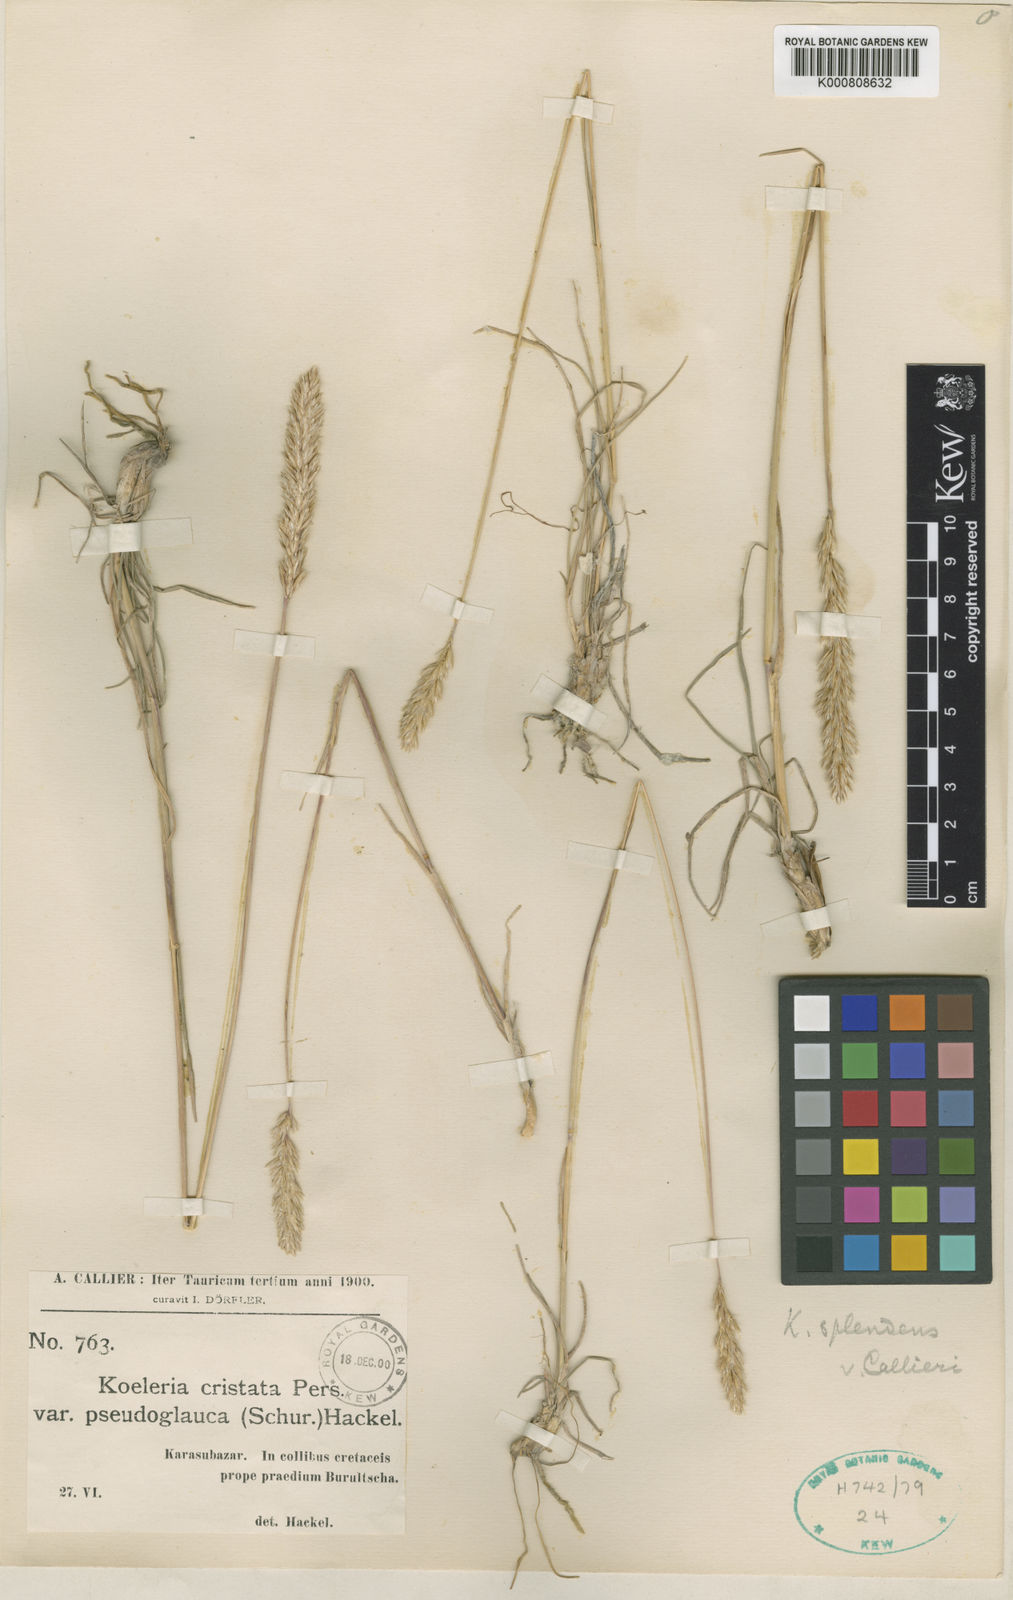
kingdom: Plantae
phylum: Tracheophyta
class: Liliopsida
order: Poales
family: Poaceae
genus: Koeleria
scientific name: Koeleria splendens
